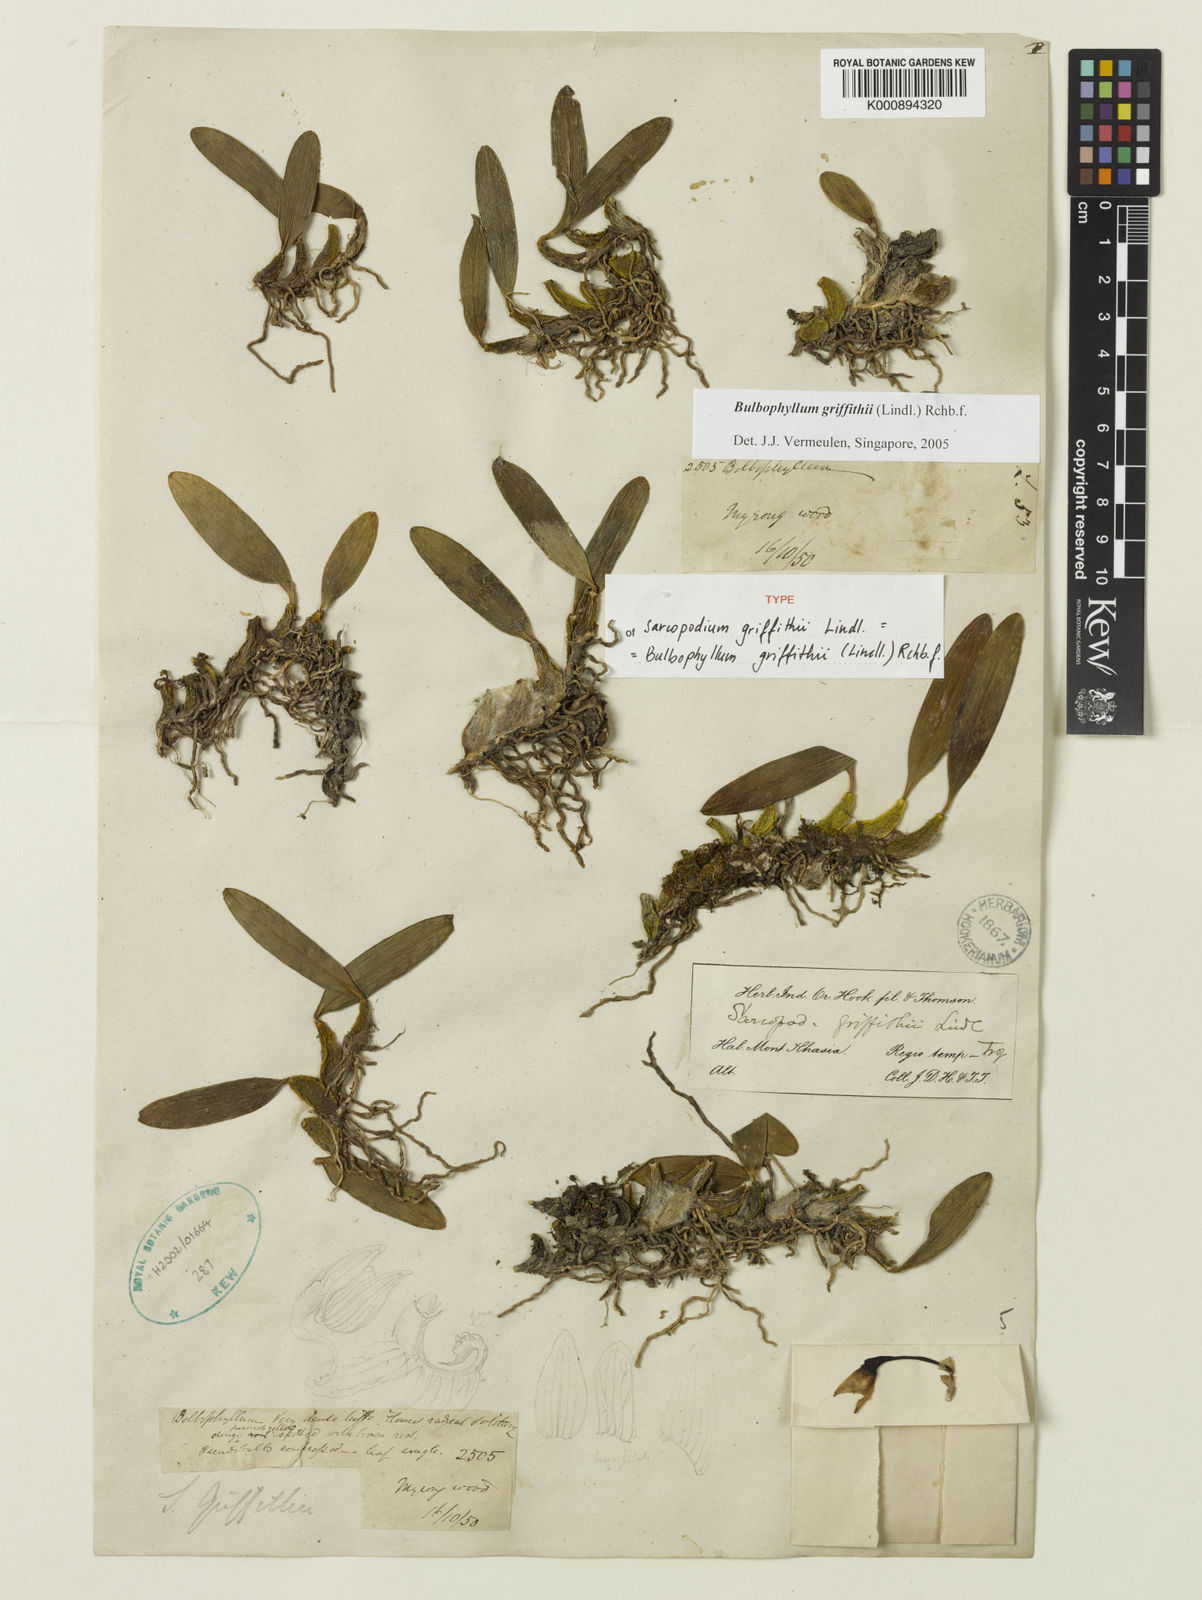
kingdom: Plantae
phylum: Tracheophyta
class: Liliopsida
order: Asparagales
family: Orchidaceae
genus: Bulbophyllum
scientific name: Bulbophyllum griffithii
